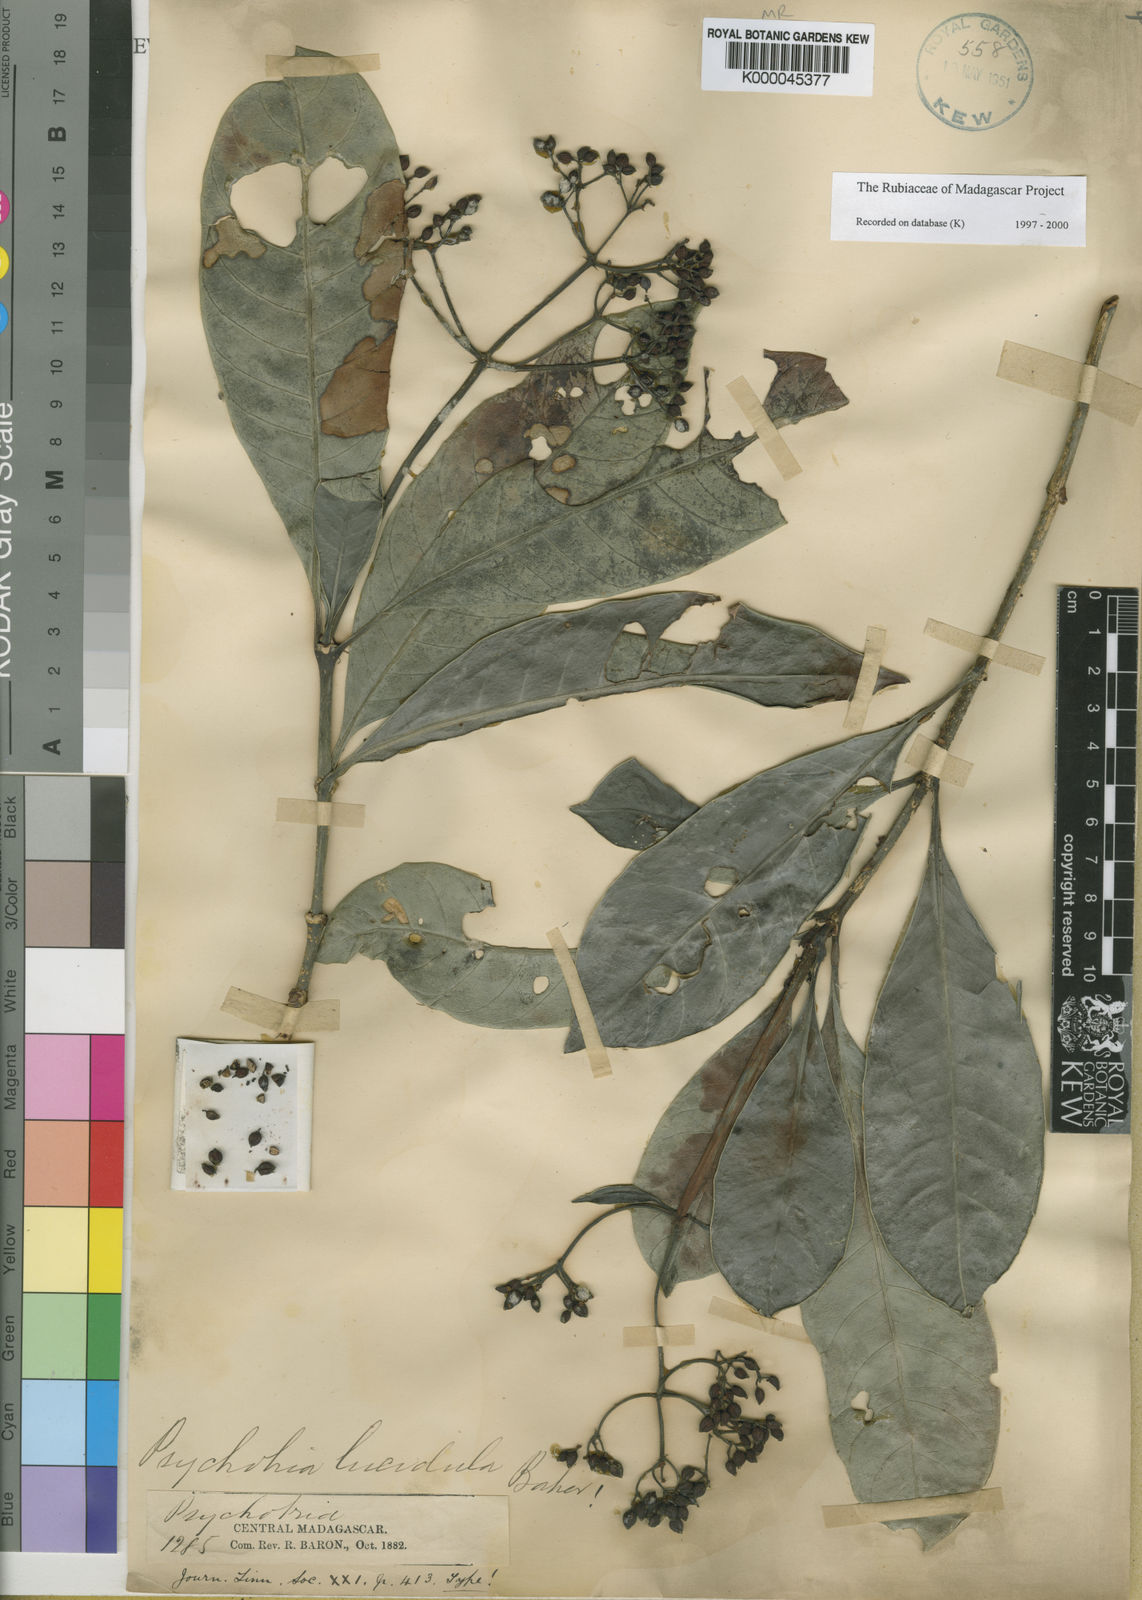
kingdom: Plantae
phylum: Tracheophyta
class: Magnoliopsida
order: Gentianales
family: Rubiaceae
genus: Psychotria
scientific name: Psychotria lucidula
